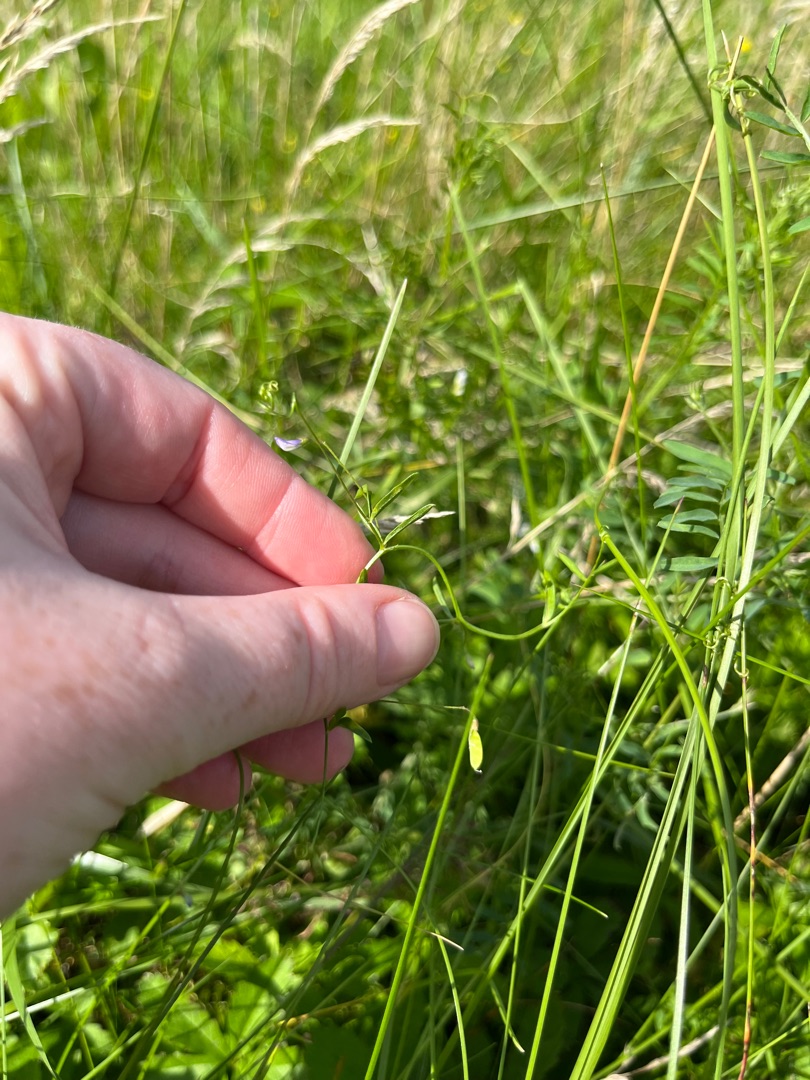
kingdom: Plantae
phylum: Tracheophyta
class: Magnoliopsida
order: Fabales
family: Fabaceae
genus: Vicia
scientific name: Vicia tetrasperma
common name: Tadder-vikke
